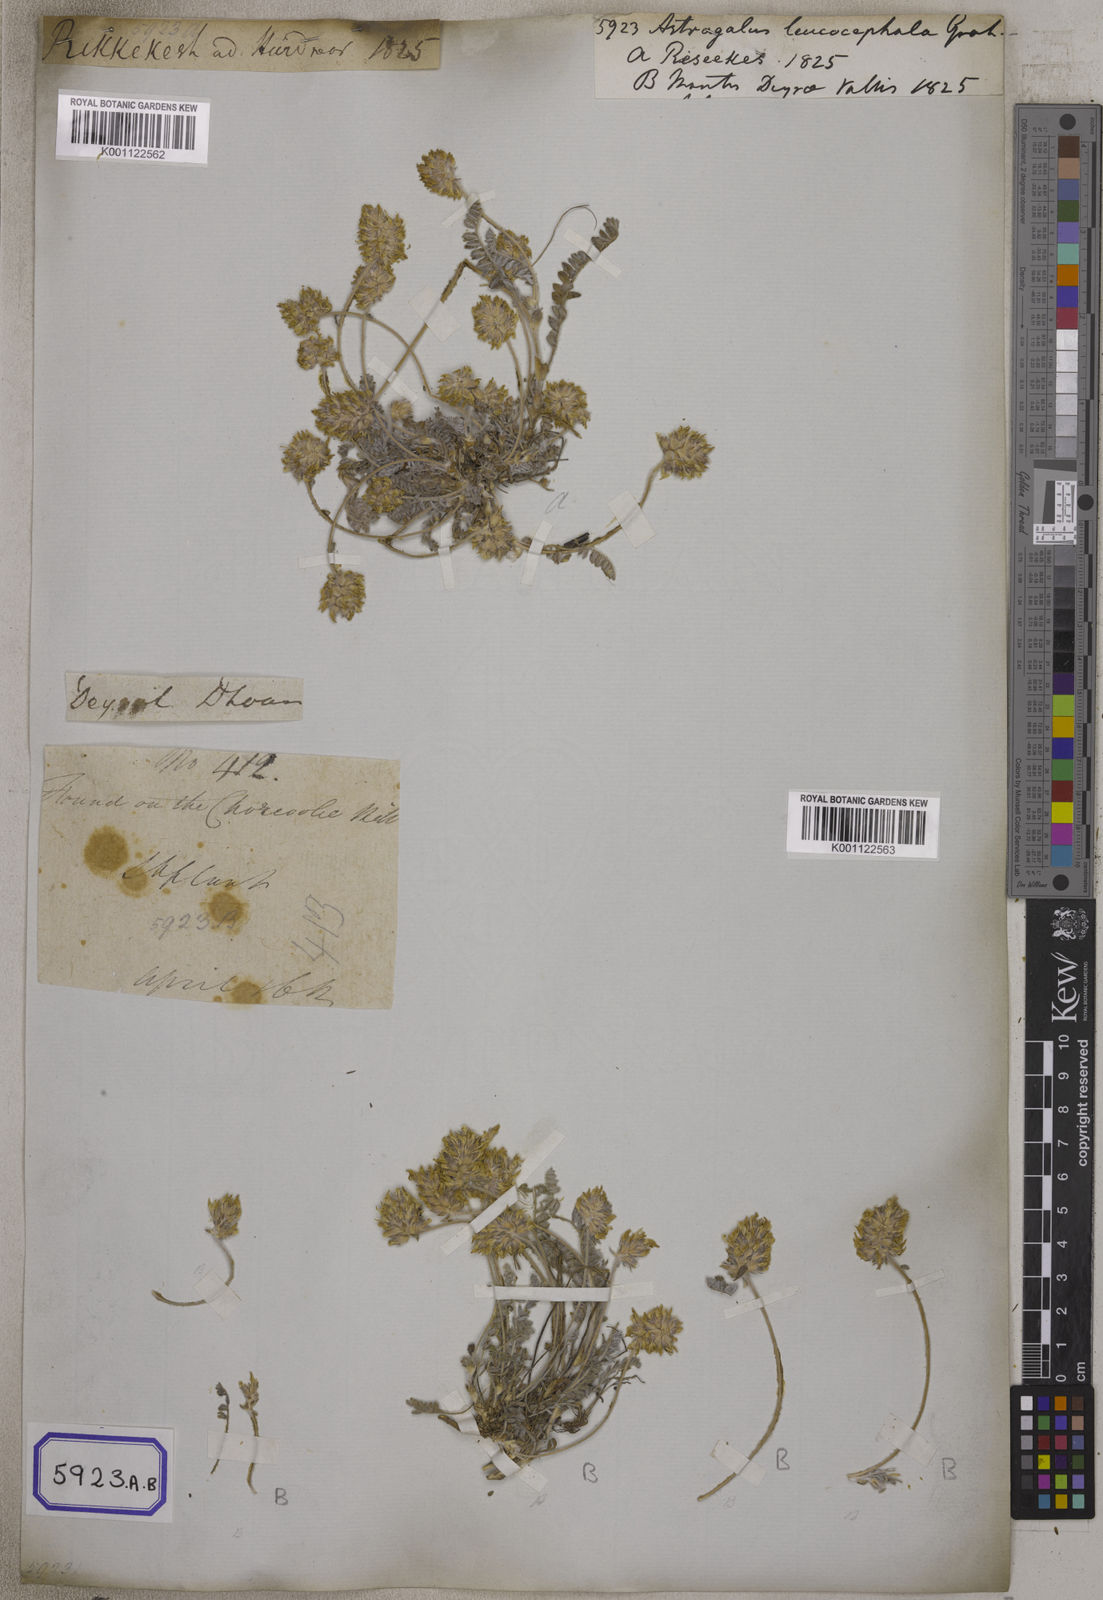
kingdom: Plantae
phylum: Tracheophyta
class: Magnoliopsida
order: Fabales
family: Fabaceae
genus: Astragalus
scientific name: Astragalus
